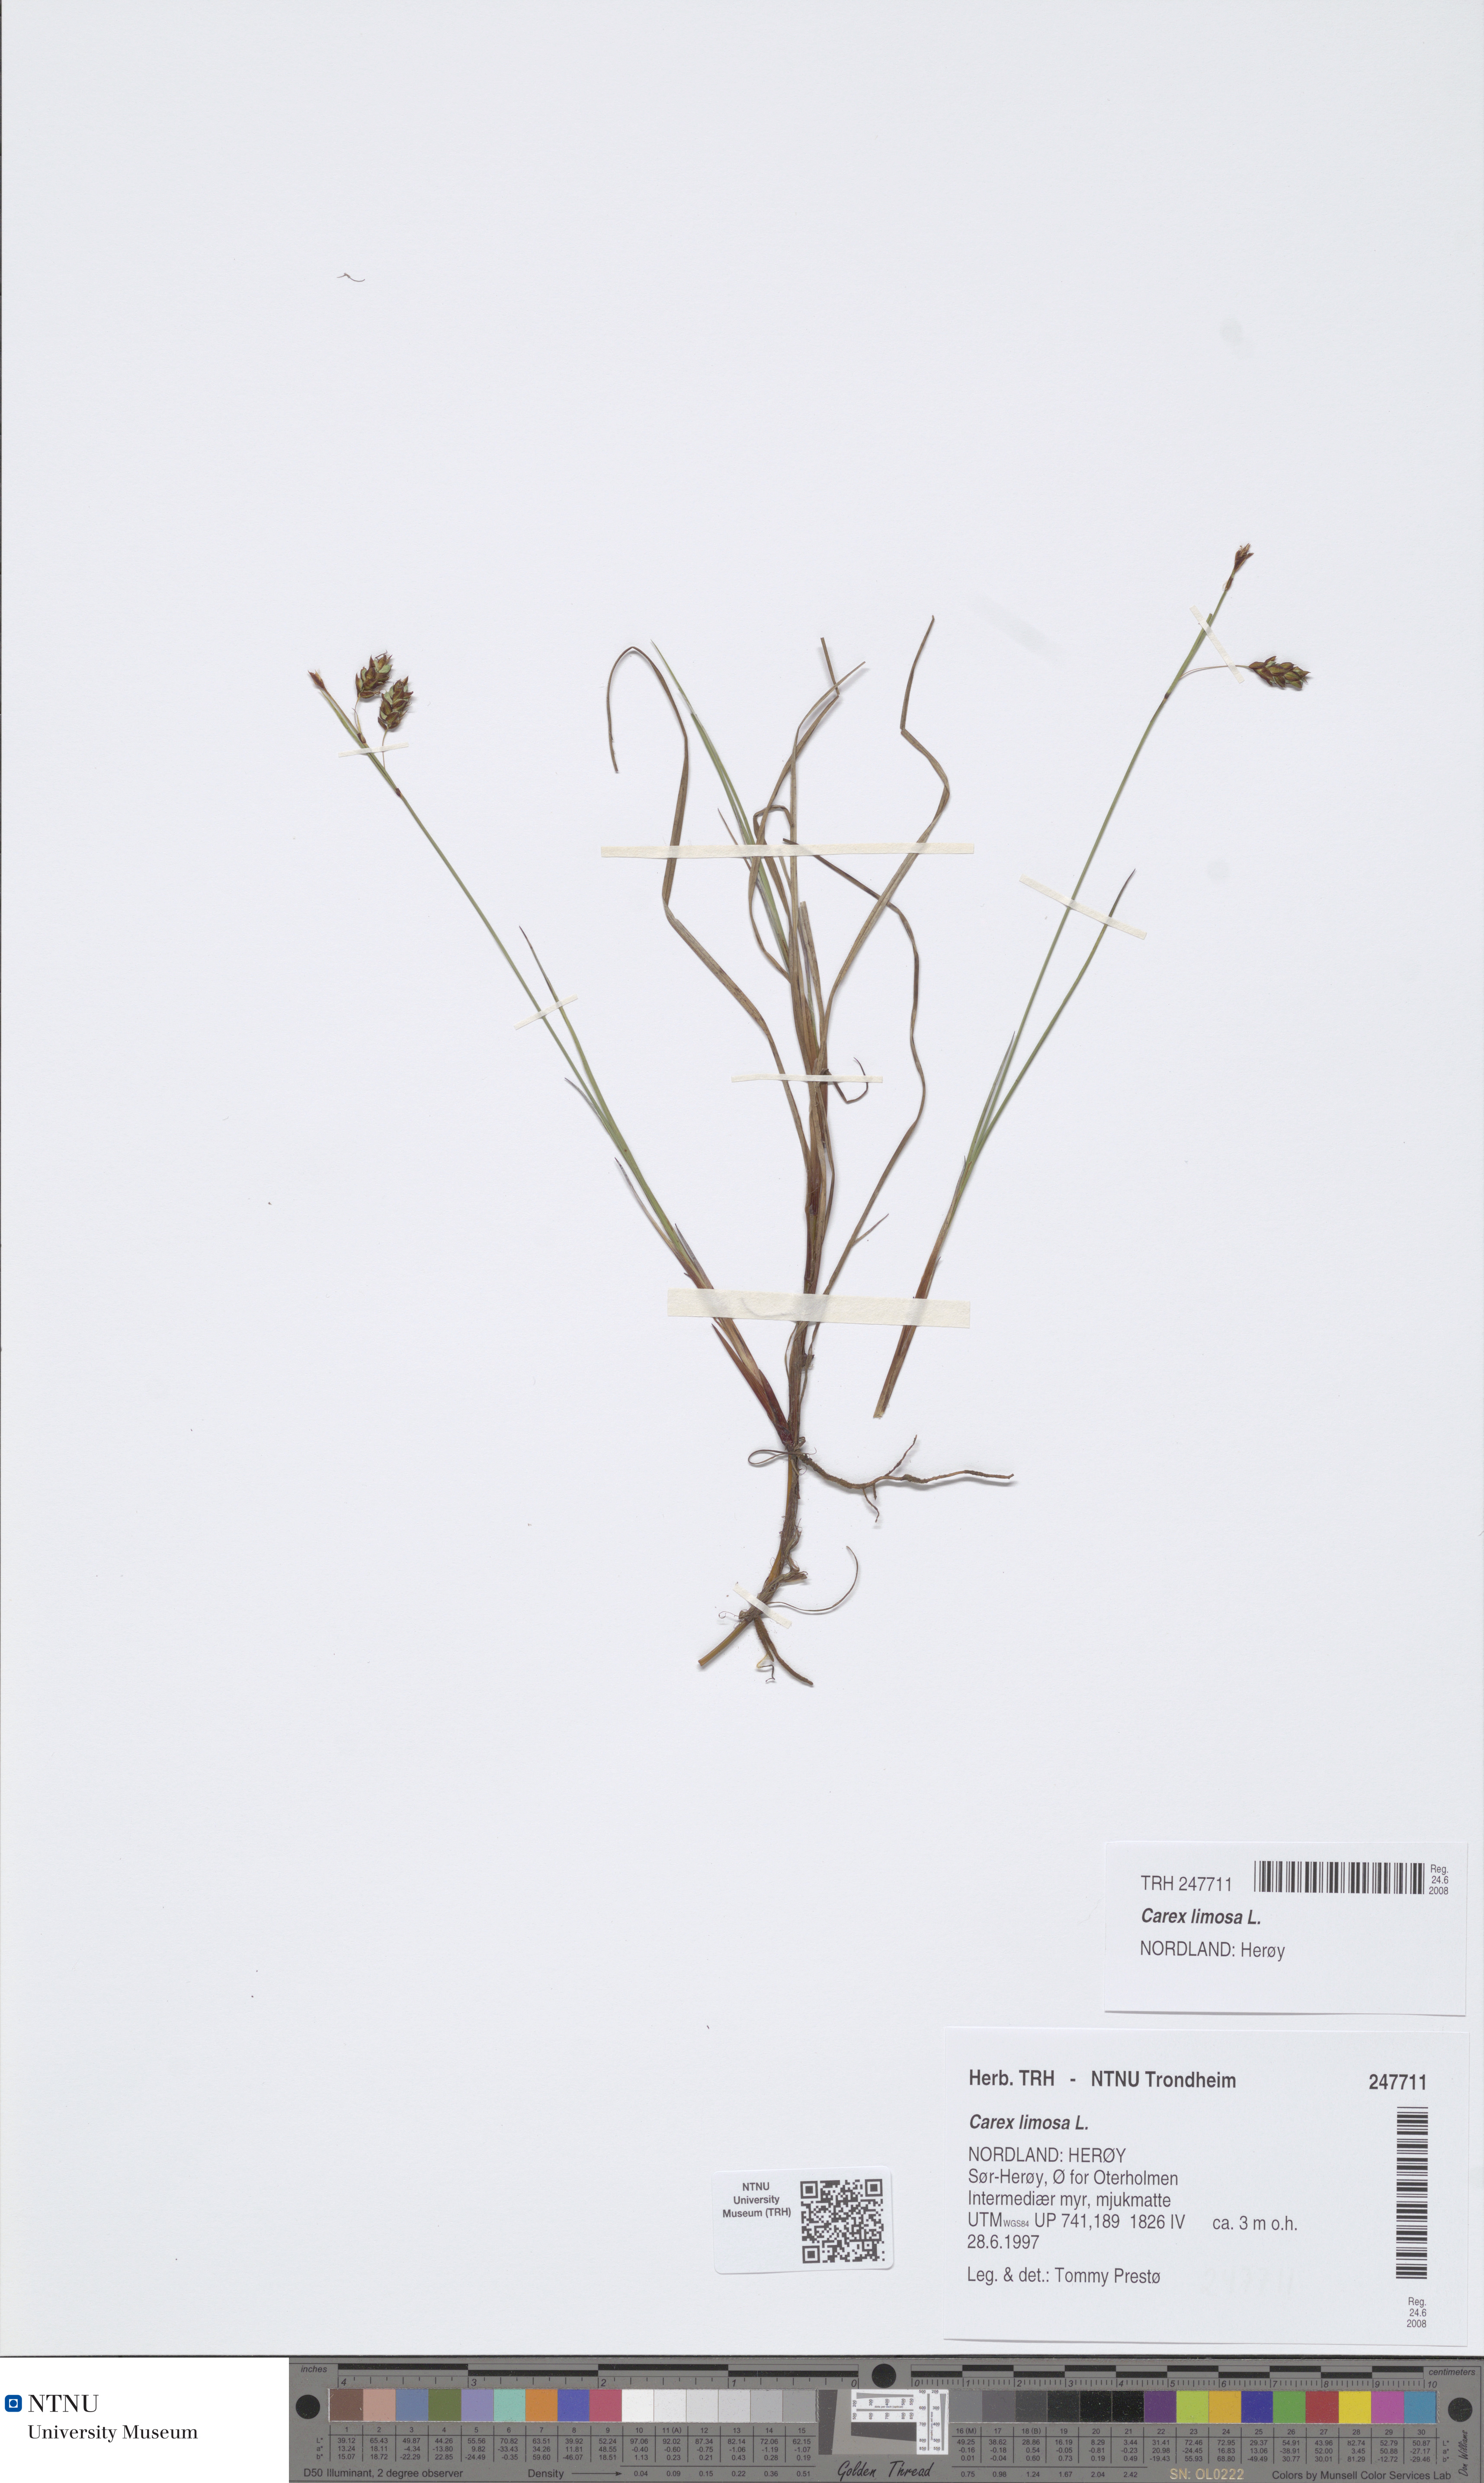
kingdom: Plantae
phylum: Tracheophyta
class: Liliopsida
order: Poales
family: Cyperaceae
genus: Carex
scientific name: Carex limosa
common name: Bog sedge
